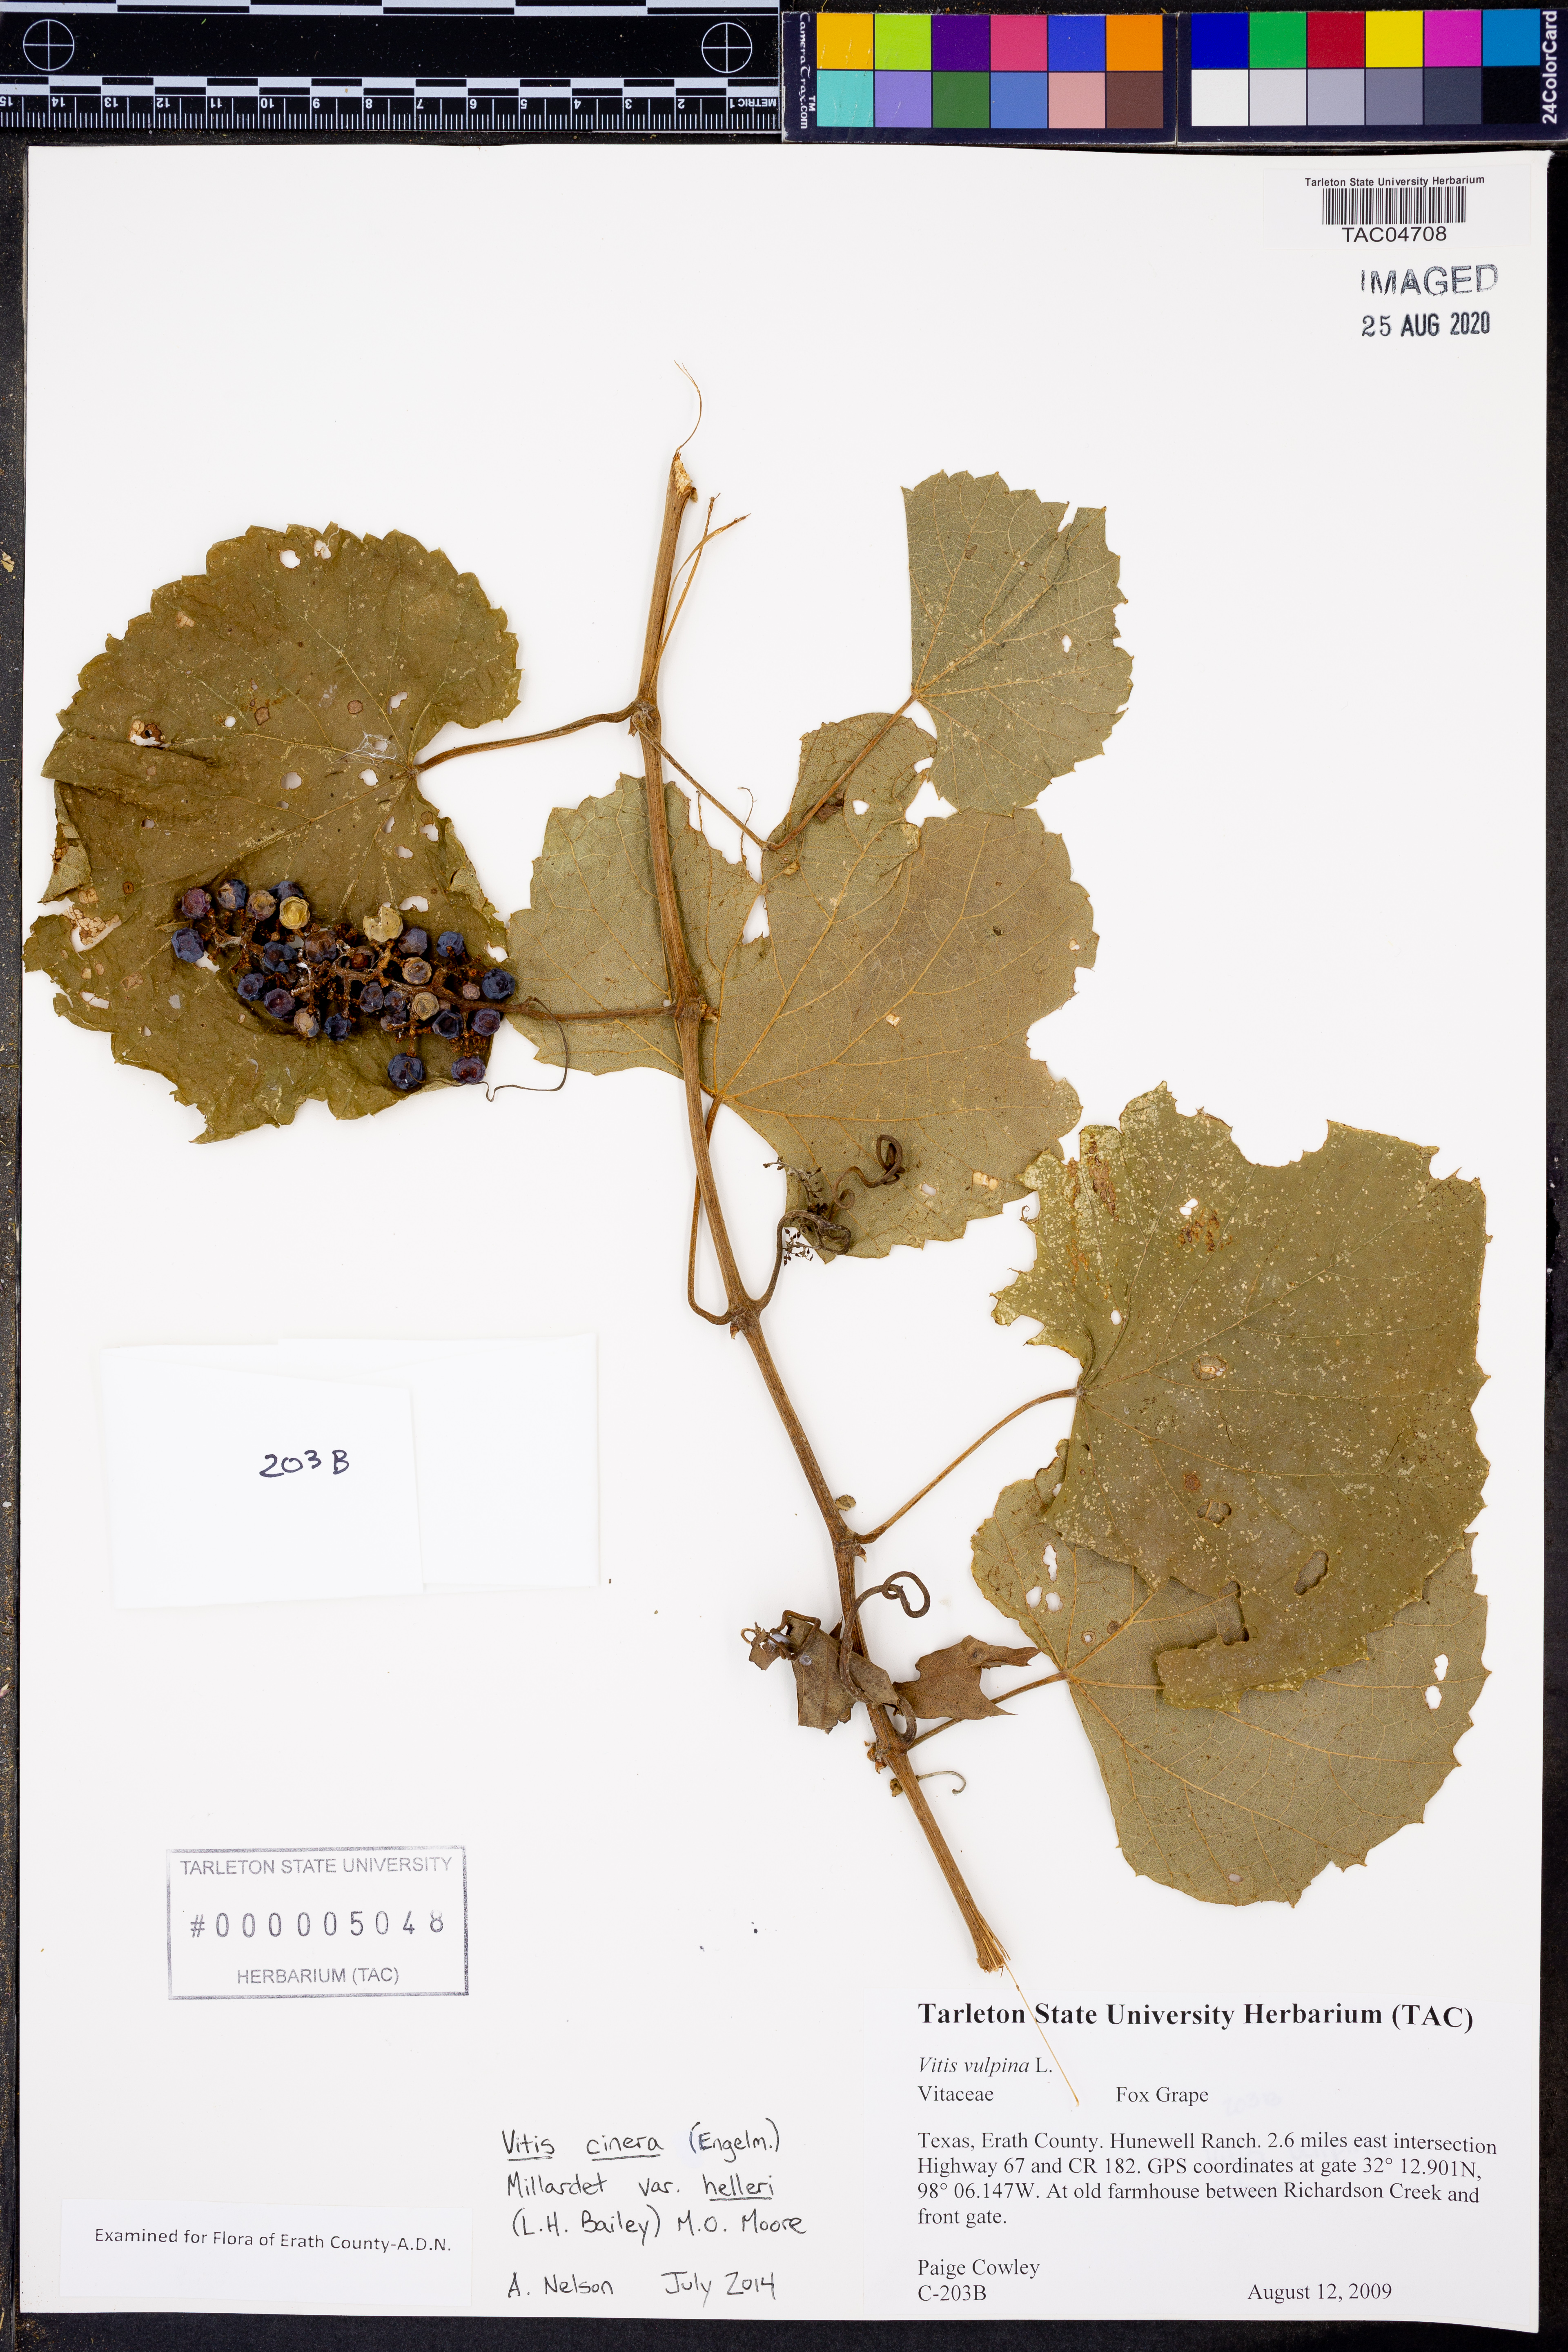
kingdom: Plantae
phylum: Tracheophyta
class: Magnoliopsida
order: Vitales
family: Vitaceae
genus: Vitis
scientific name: Vitis cinerea
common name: Ashy grape
